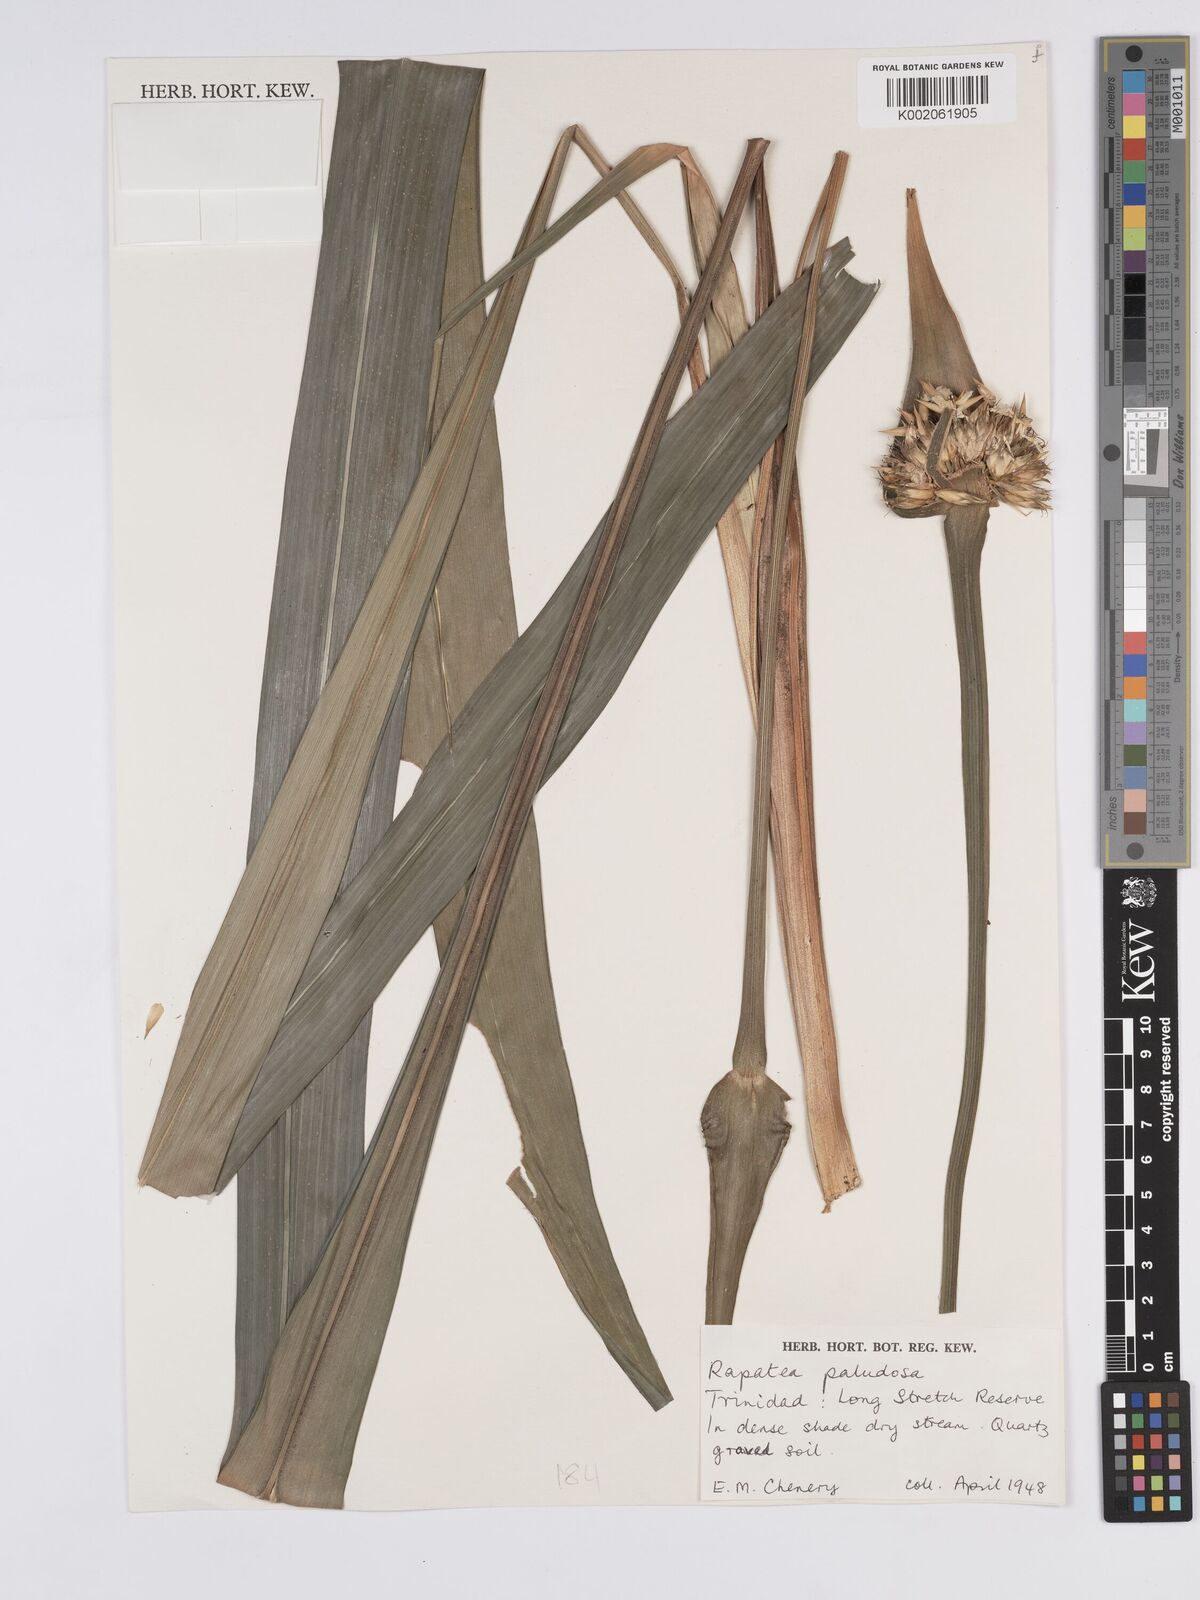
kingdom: Plantae
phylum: Tracheophyta
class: Liliopsida
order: Poales
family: Rapateaceae
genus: Rapatea
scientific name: Rapatea paludosa
